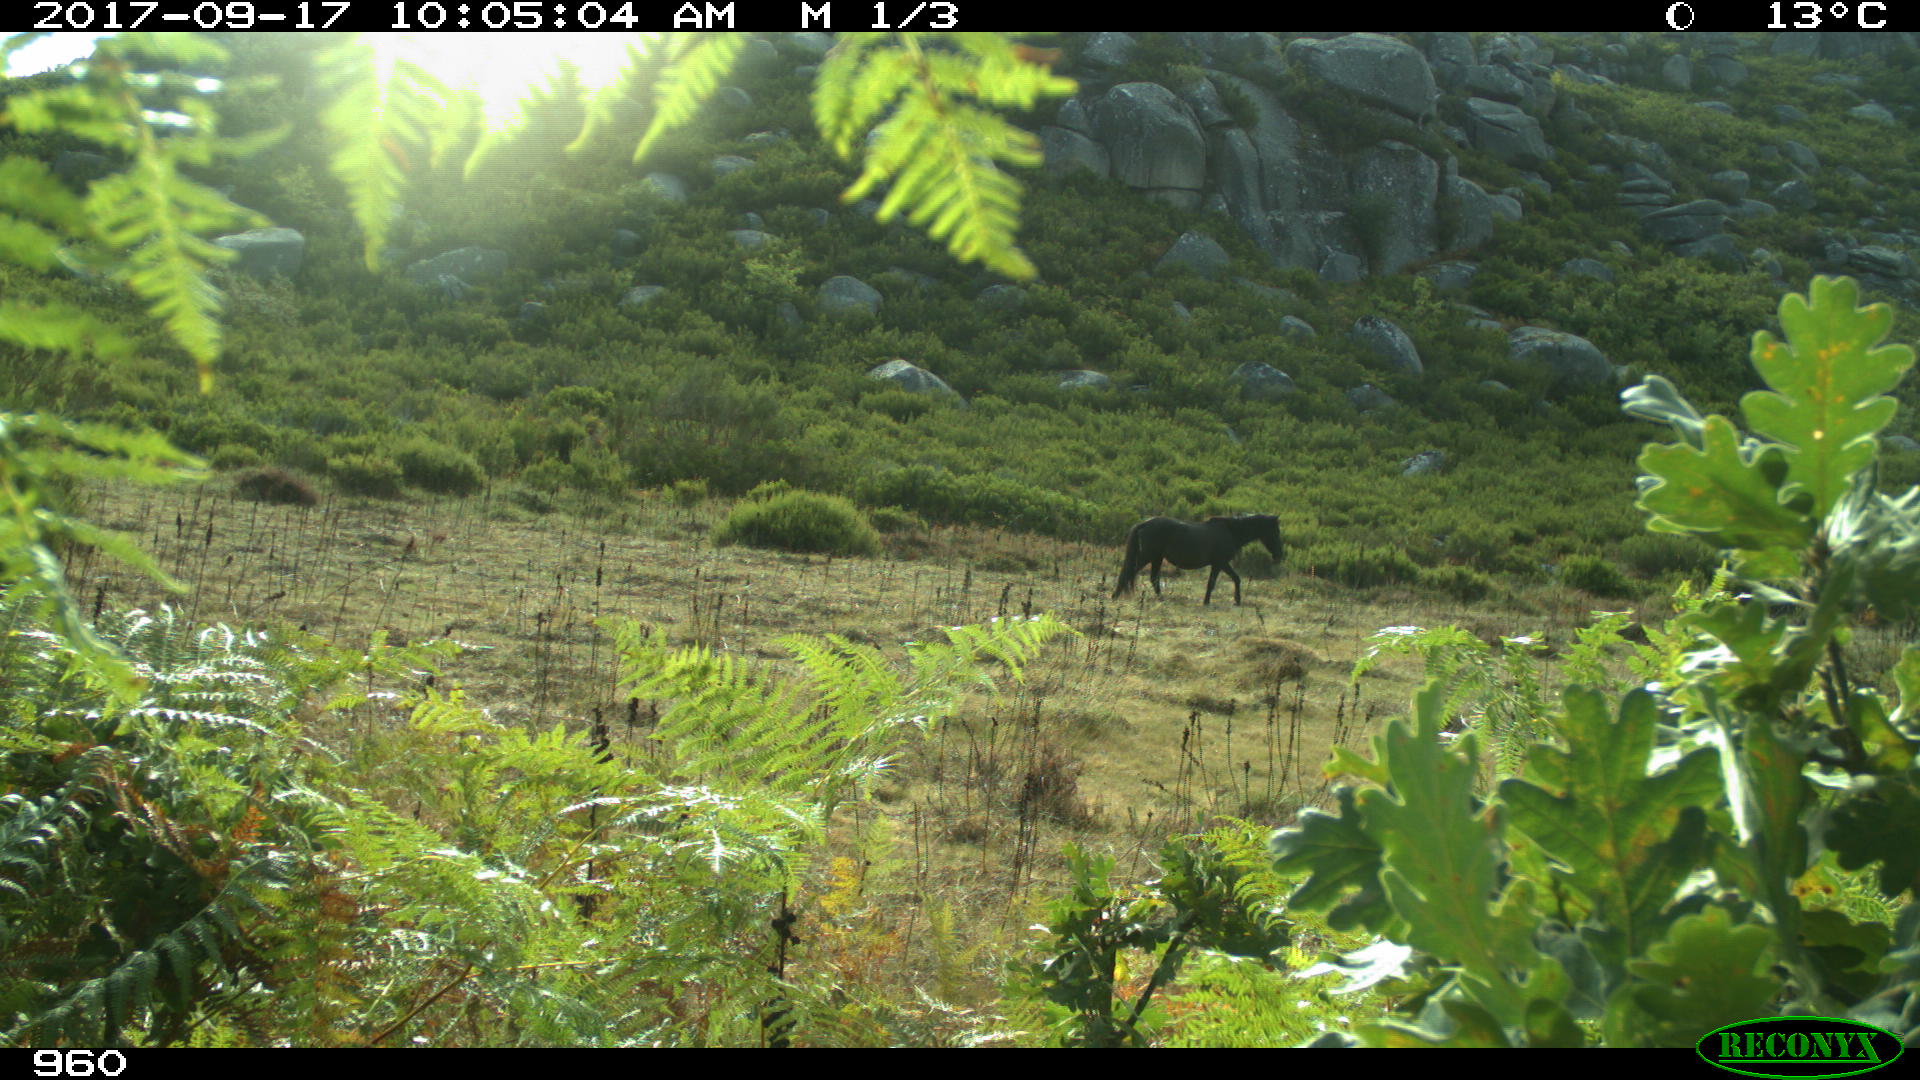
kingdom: Animalia
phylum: Chordata
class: Mammalia
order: Perissodactyla
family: Equidae
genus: Equus
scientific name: Equus caballus
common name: Horse
